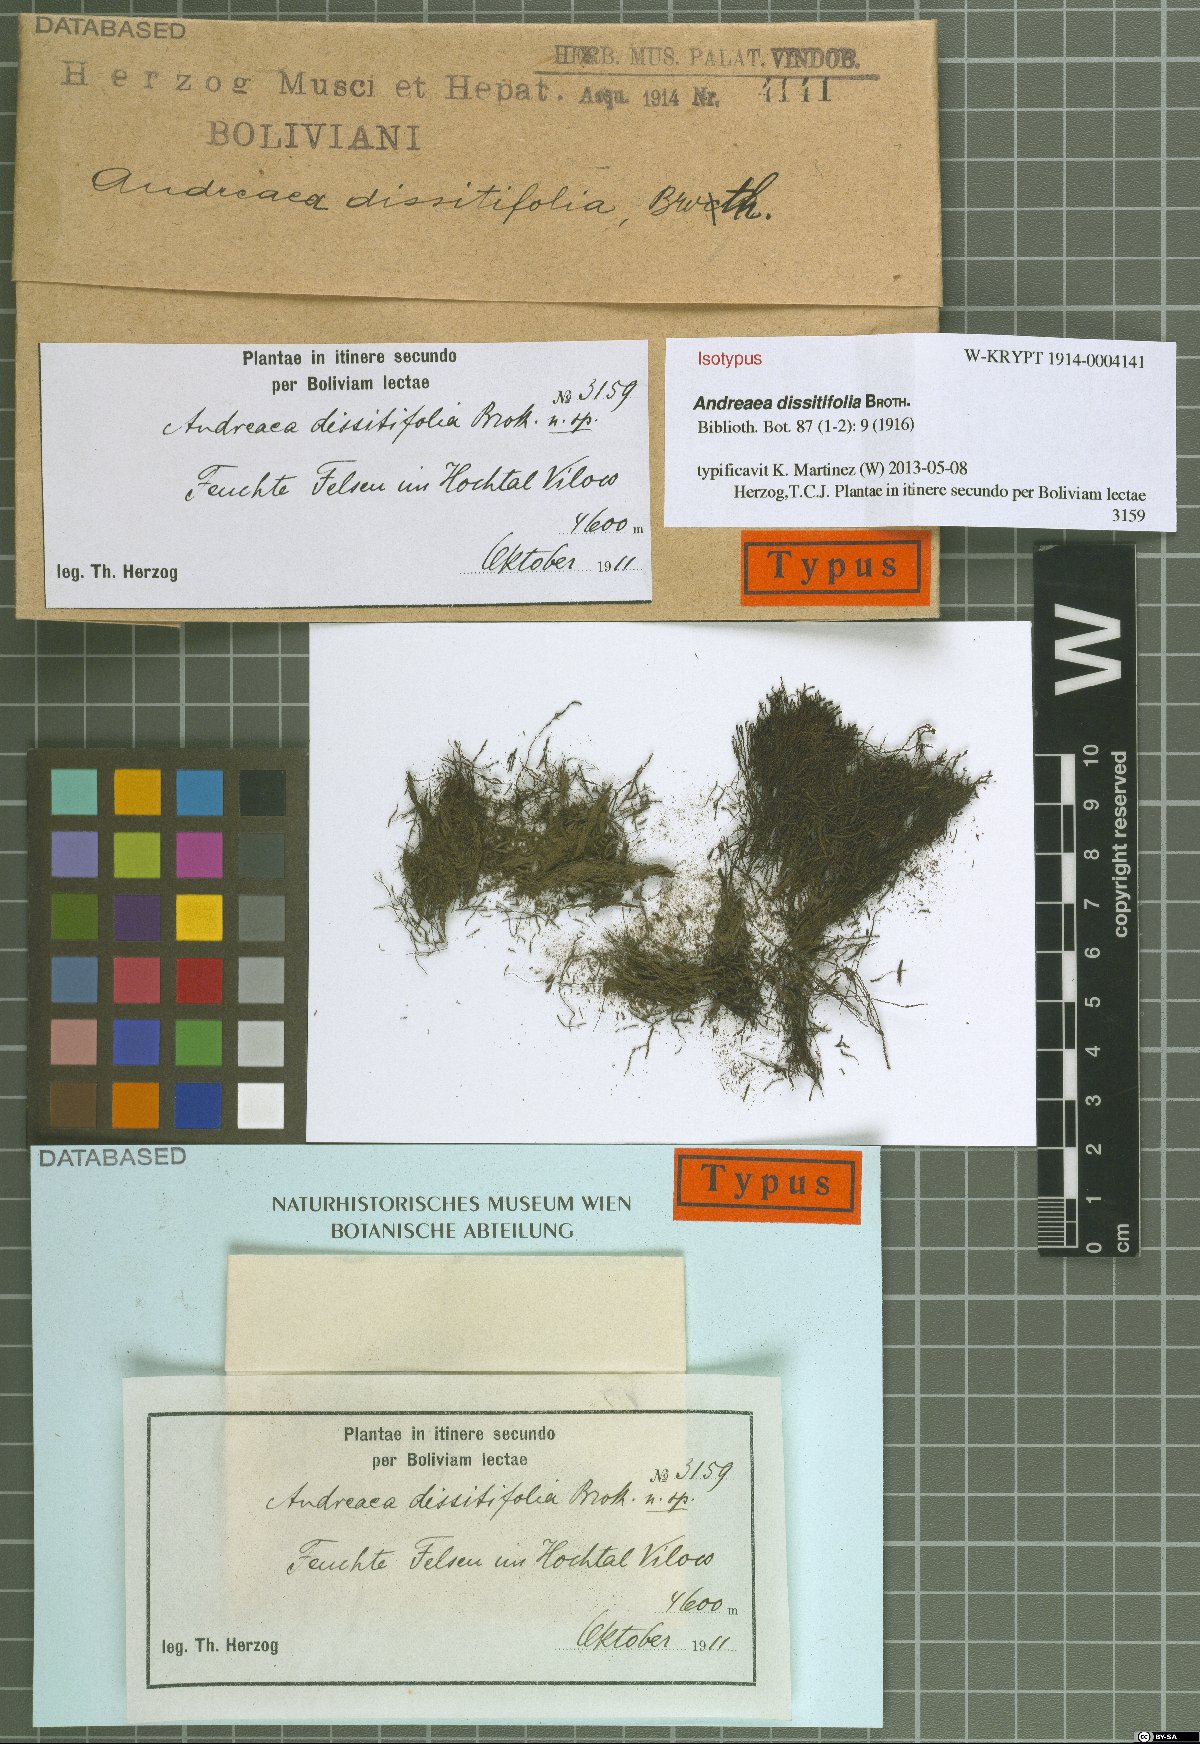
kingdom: Plantae
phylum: Bryophyta
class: Andreaeopsida
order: Andreaeales
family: Andreaeaceae
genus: Andreaea
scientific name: Andreaea dissitifolia
